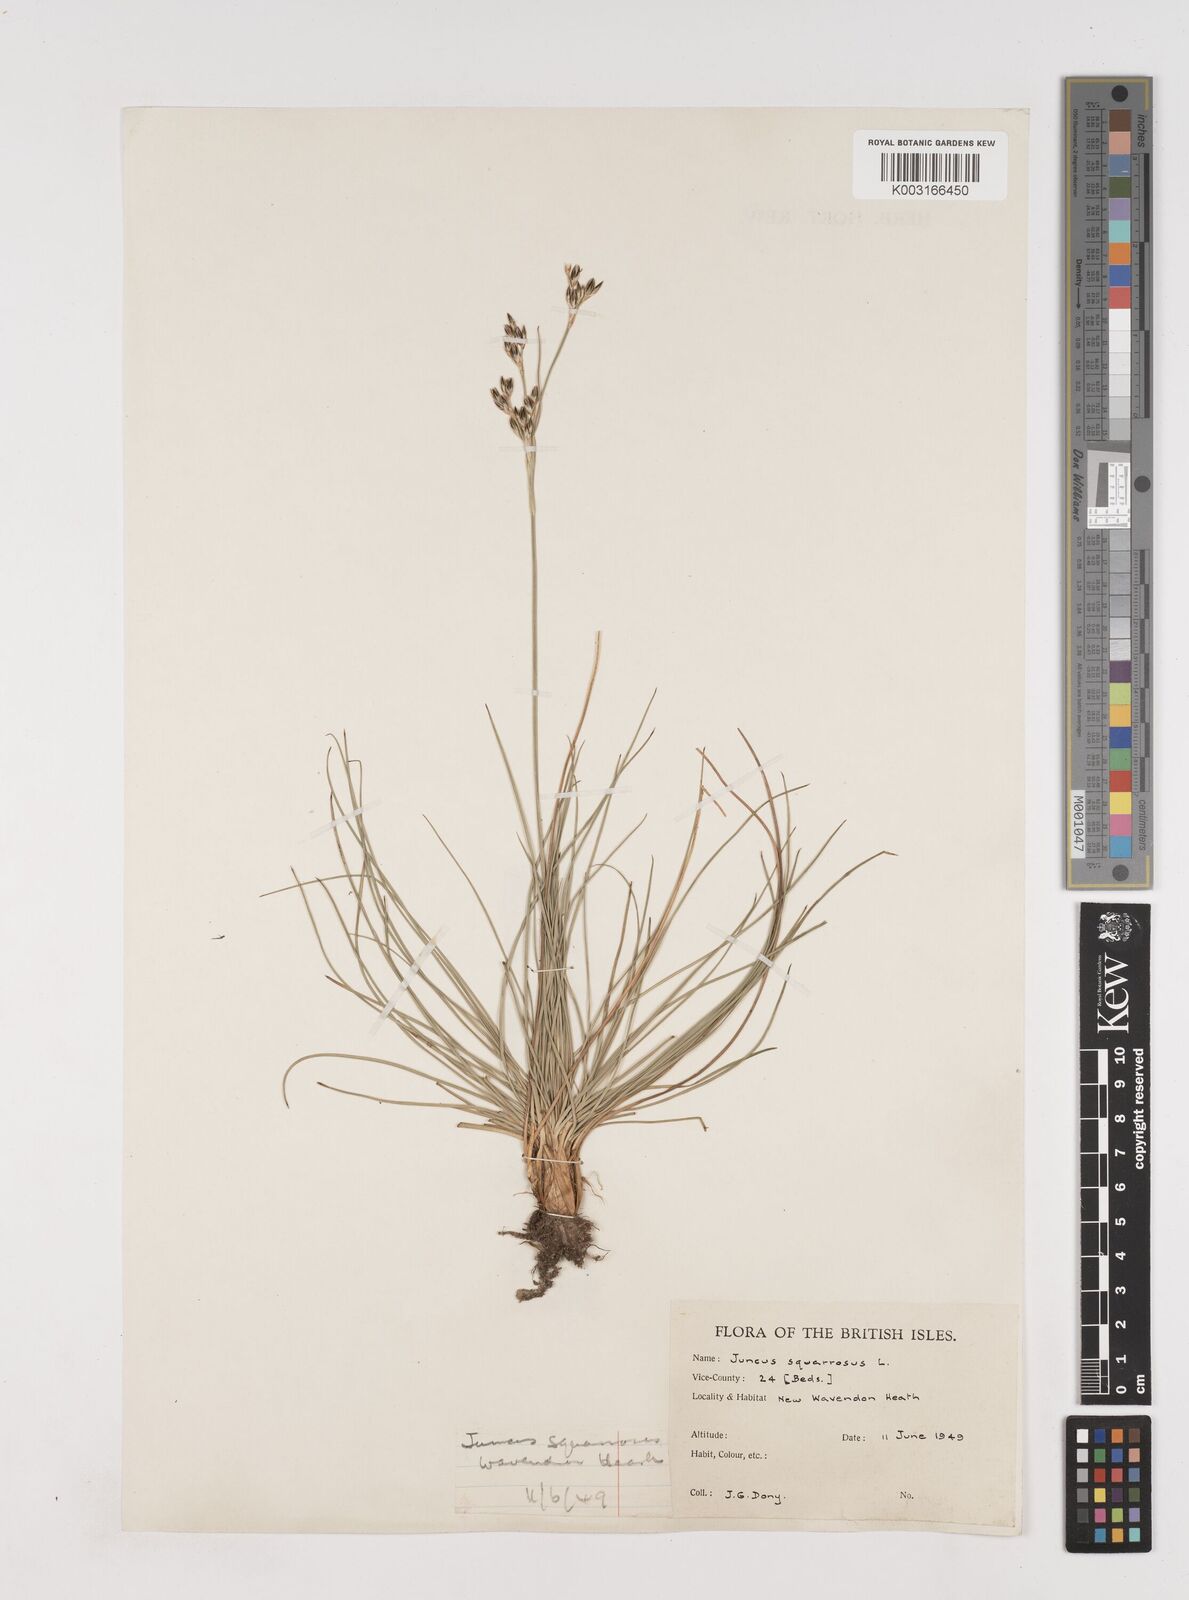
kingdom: Plantae
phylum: Tracheophyta
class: Liliopsida
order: Poales
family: Juncaceae
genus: Juncus
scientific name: Juncus squarrosus
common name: Heath rush
